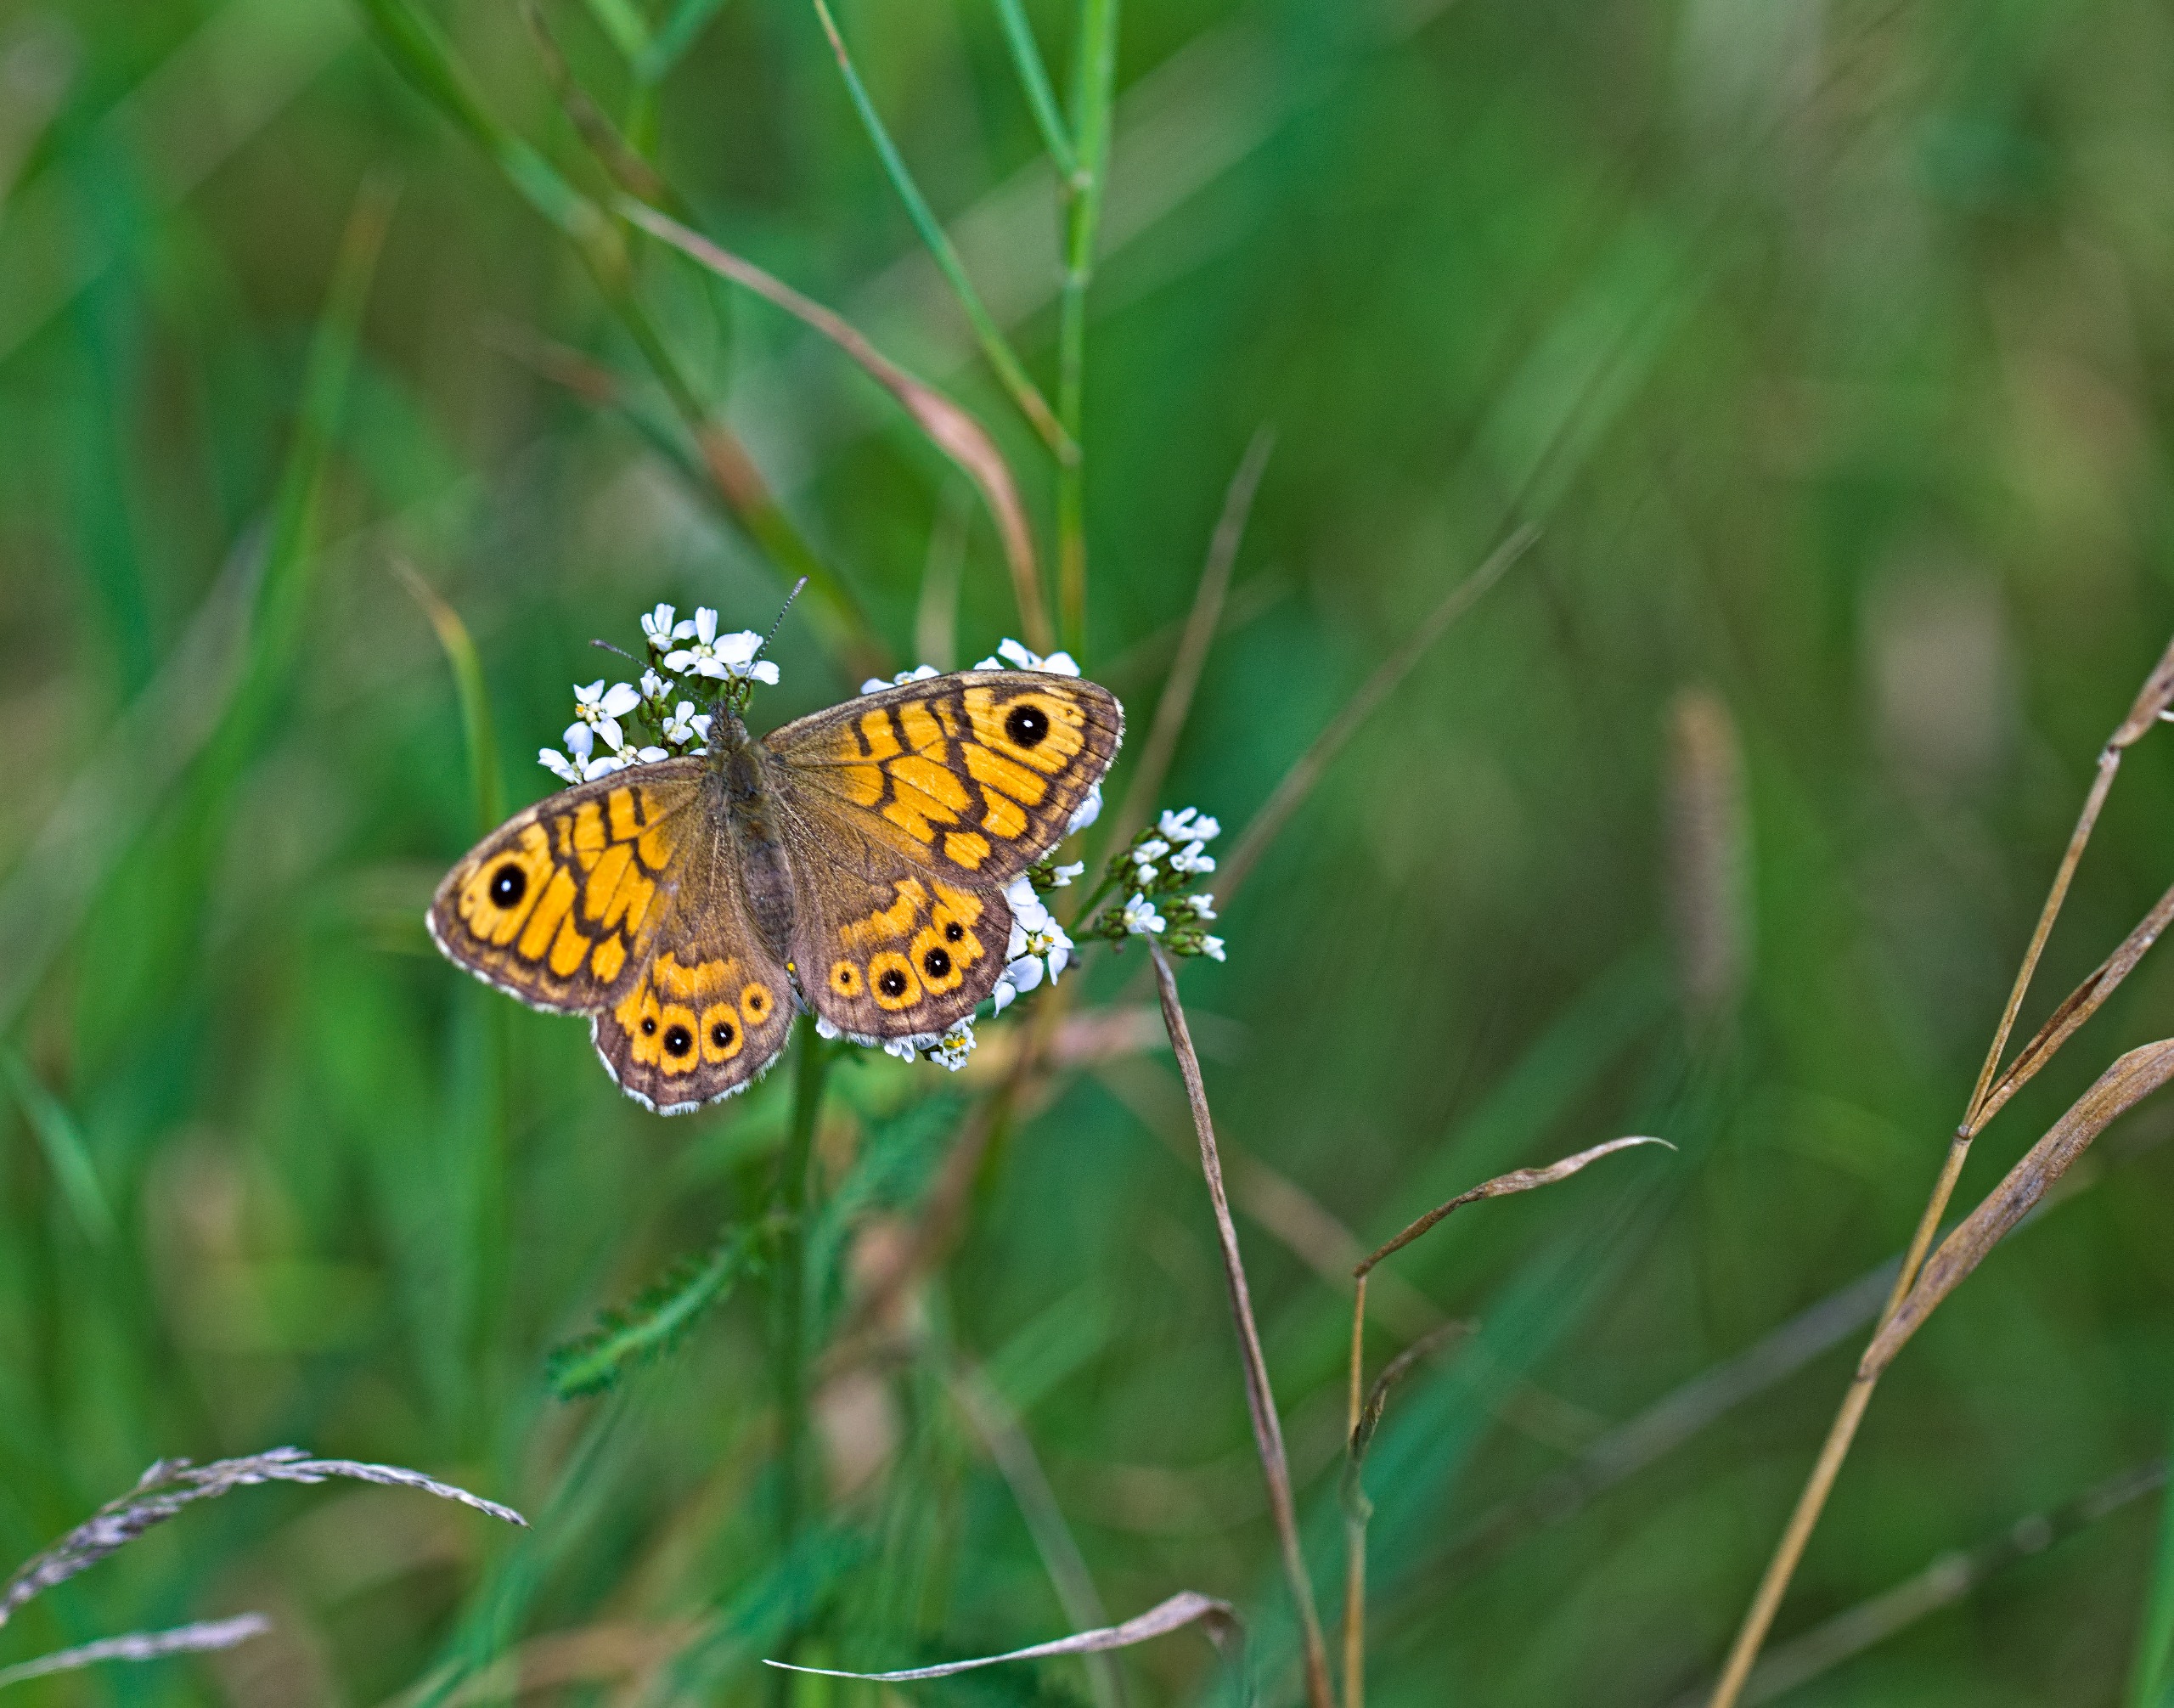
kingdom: Animalia
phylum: Arthropoda
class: Insecta
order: Lepidoptera
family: Nymphalidae
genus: Pararge
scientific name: Pararge Lasiommata megera
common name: Vejrandøje
